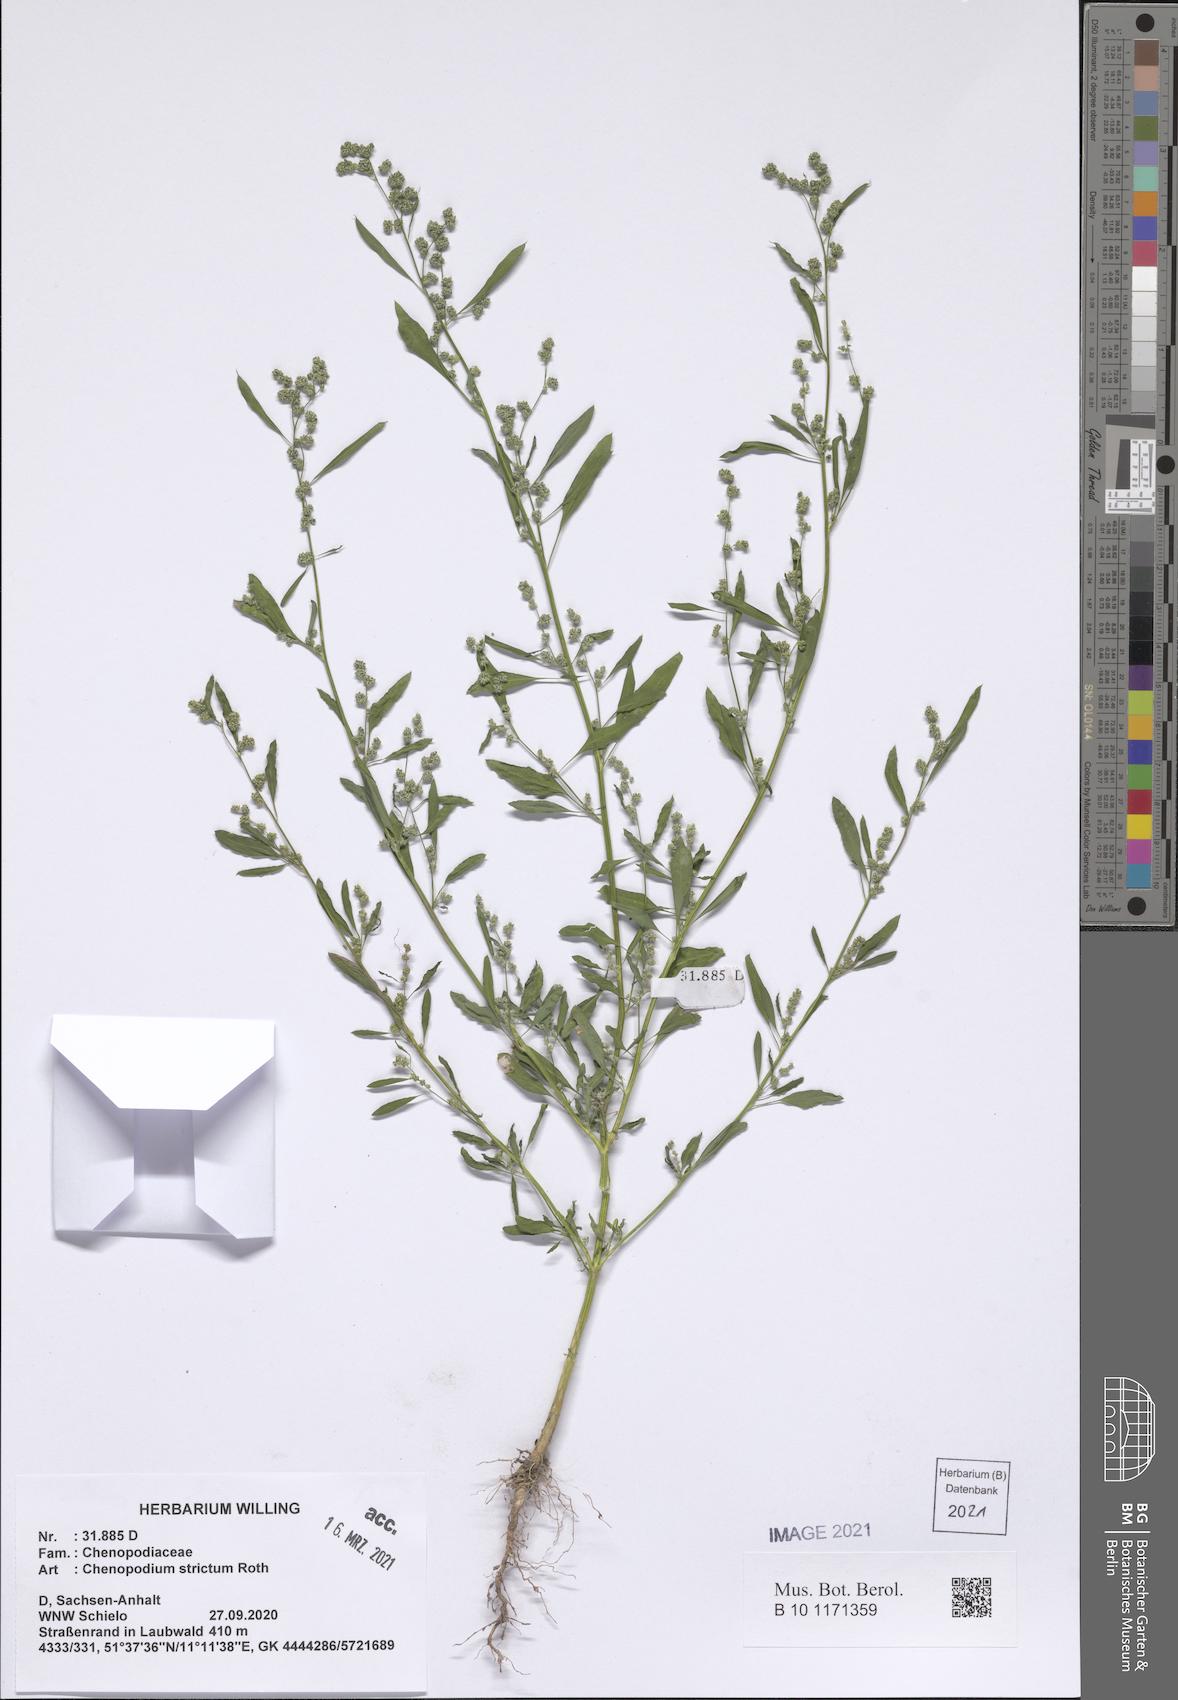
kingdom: Plantae
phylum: Tracheophyta
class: Magnoliopsida
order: Caryophyllales
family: Amaranthaceae
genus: Chenopodium
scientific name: Chenopodium album
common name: Fat-hen
